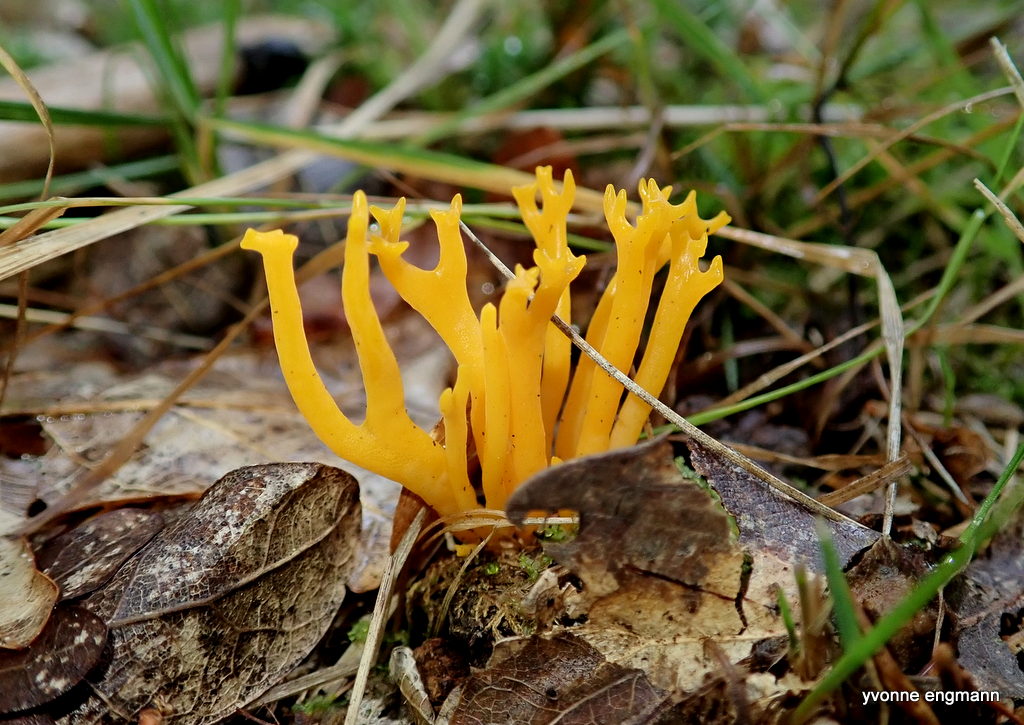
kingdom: Fungi
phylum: Basidiomycota
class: Dacrymycetes
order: Dacrymycetales
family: Dacrymycetaceae
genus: Calocera
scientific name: Calocera viscosa
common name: almindelig guldgaffel
